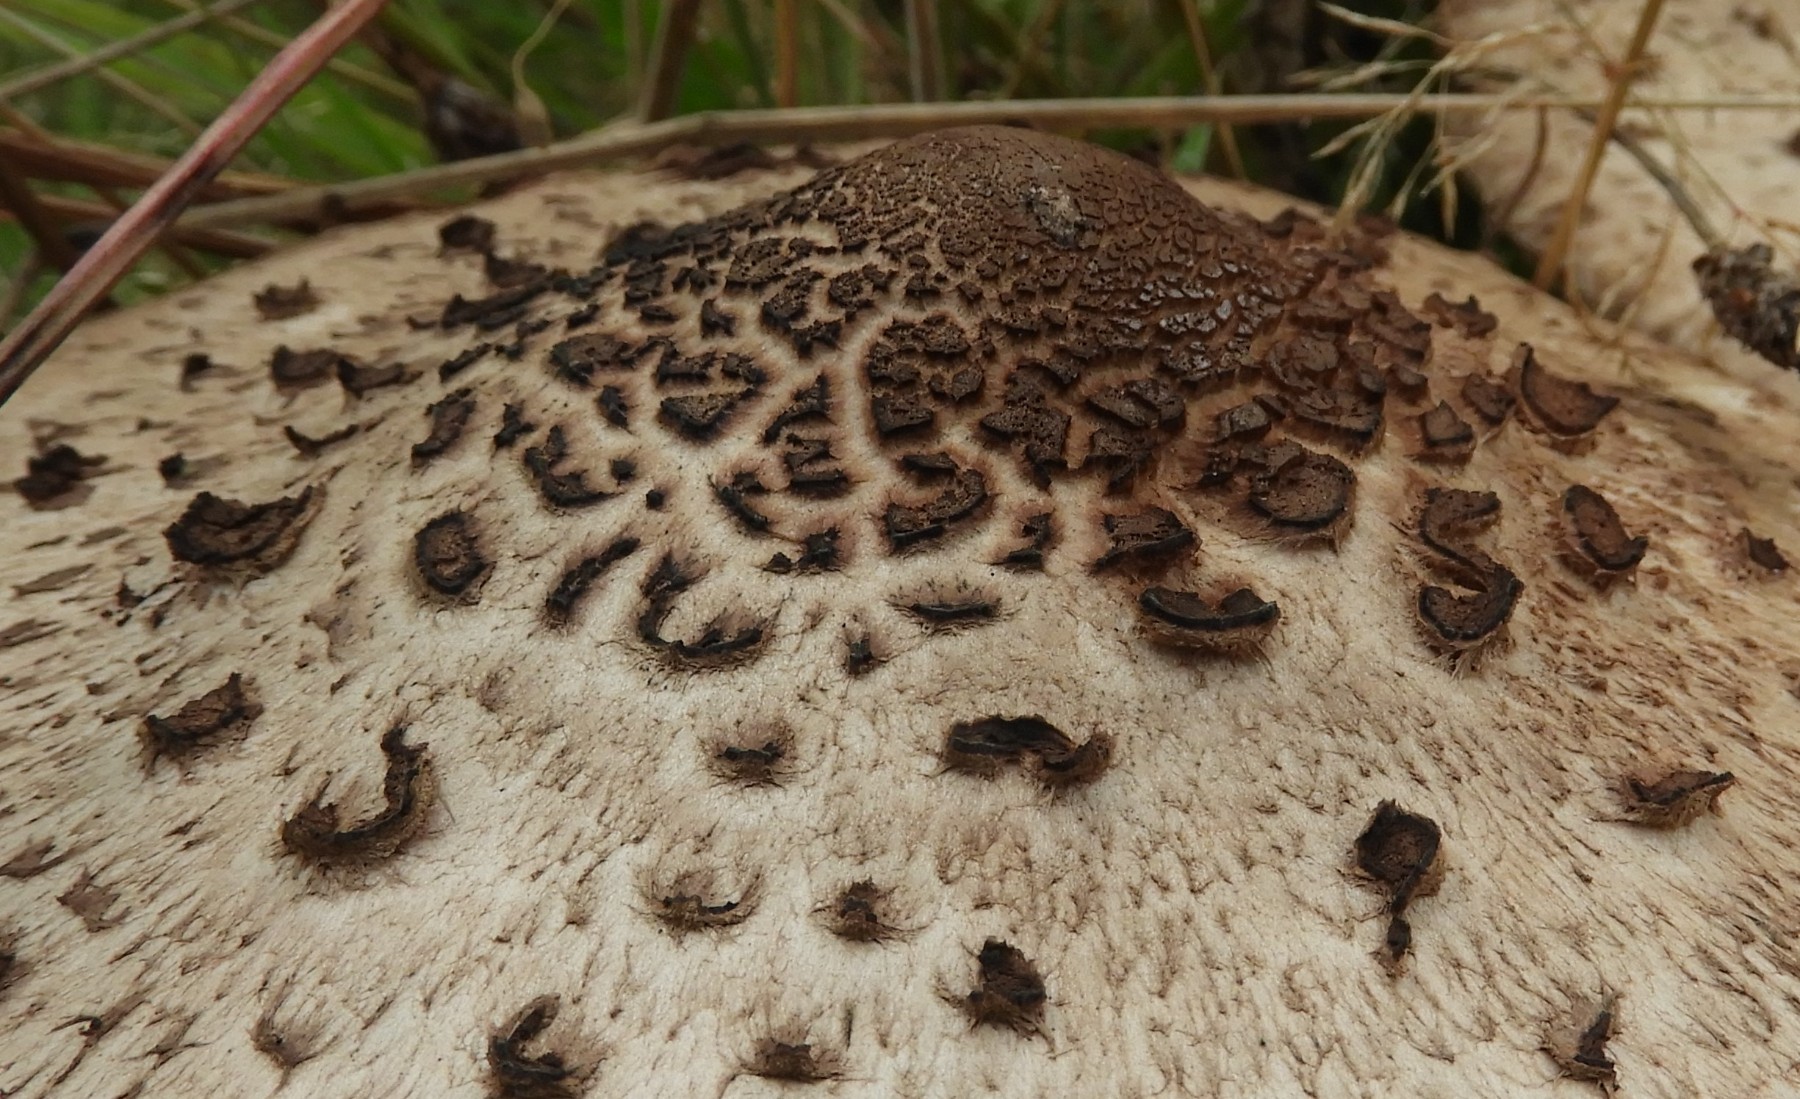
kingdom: Fungi
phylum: Basidiomycota
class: Agaricomycetes
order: Agaricales
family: Agaricaceae
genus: Macrolepiota
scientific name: Macrolepiota fuliginosa
